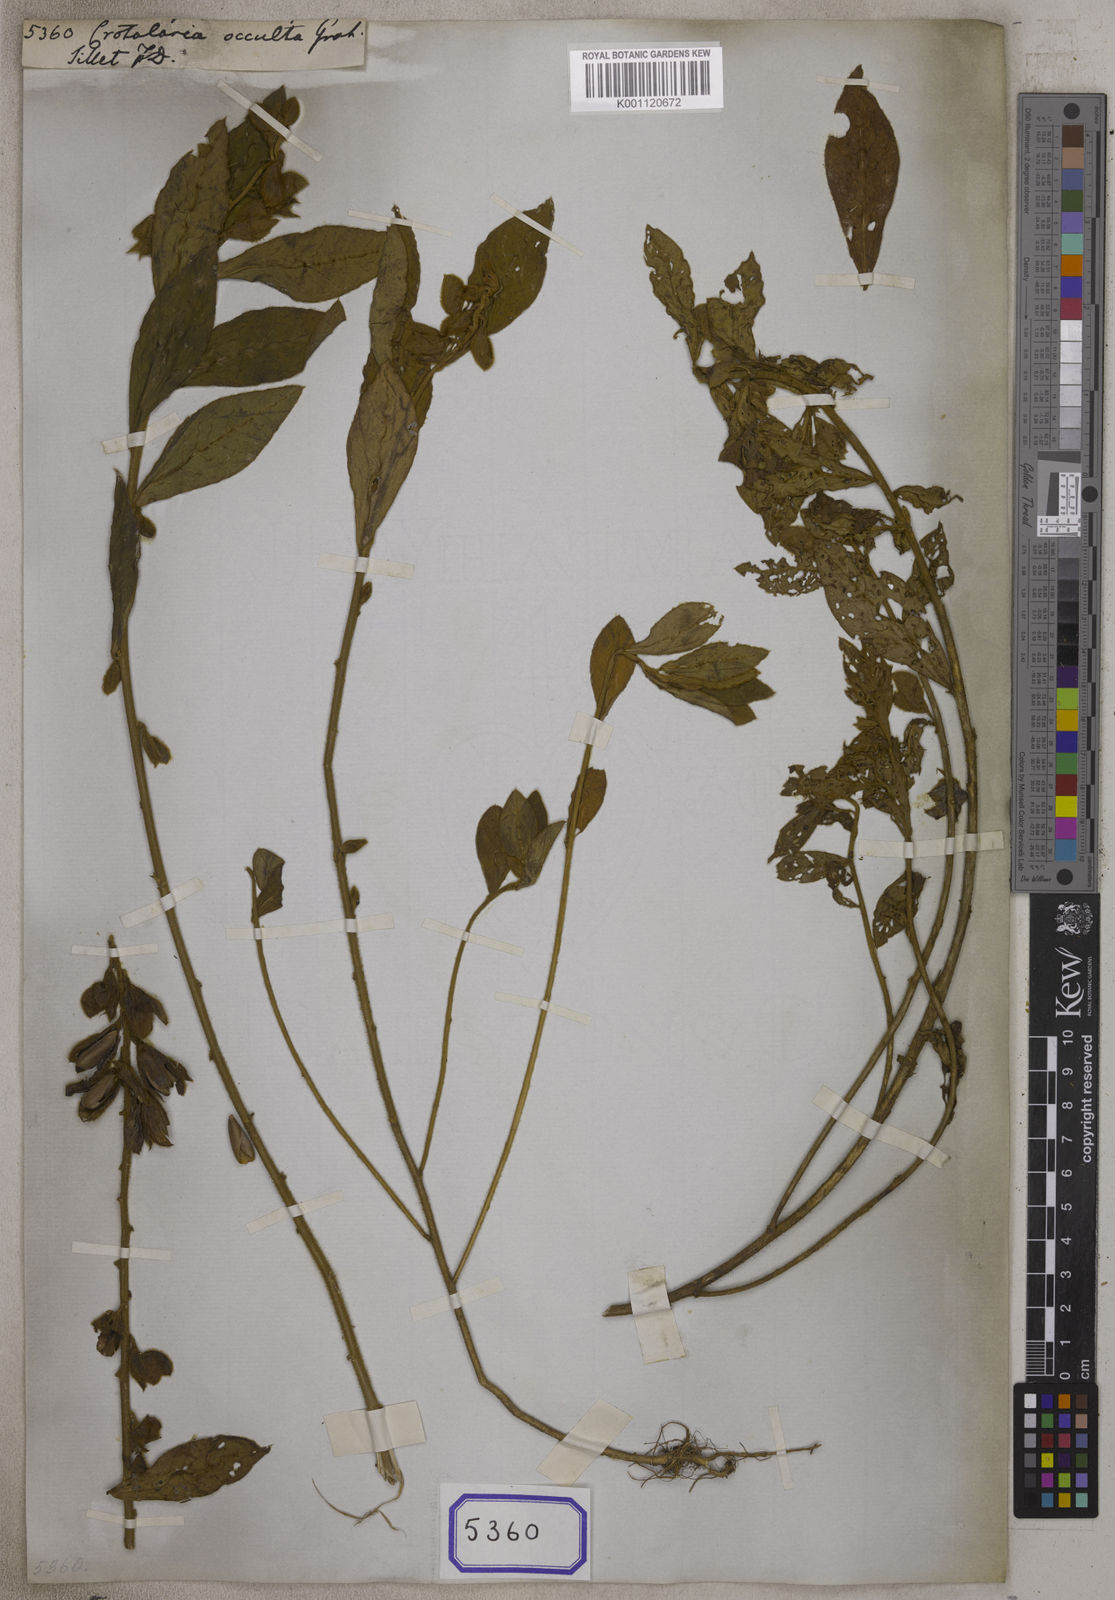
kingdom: Plantae
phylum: Tracheophyta
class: Magnoliopsida
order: Fabales
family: Fabaceae
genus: Crotalaria
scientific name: Crotalaria
